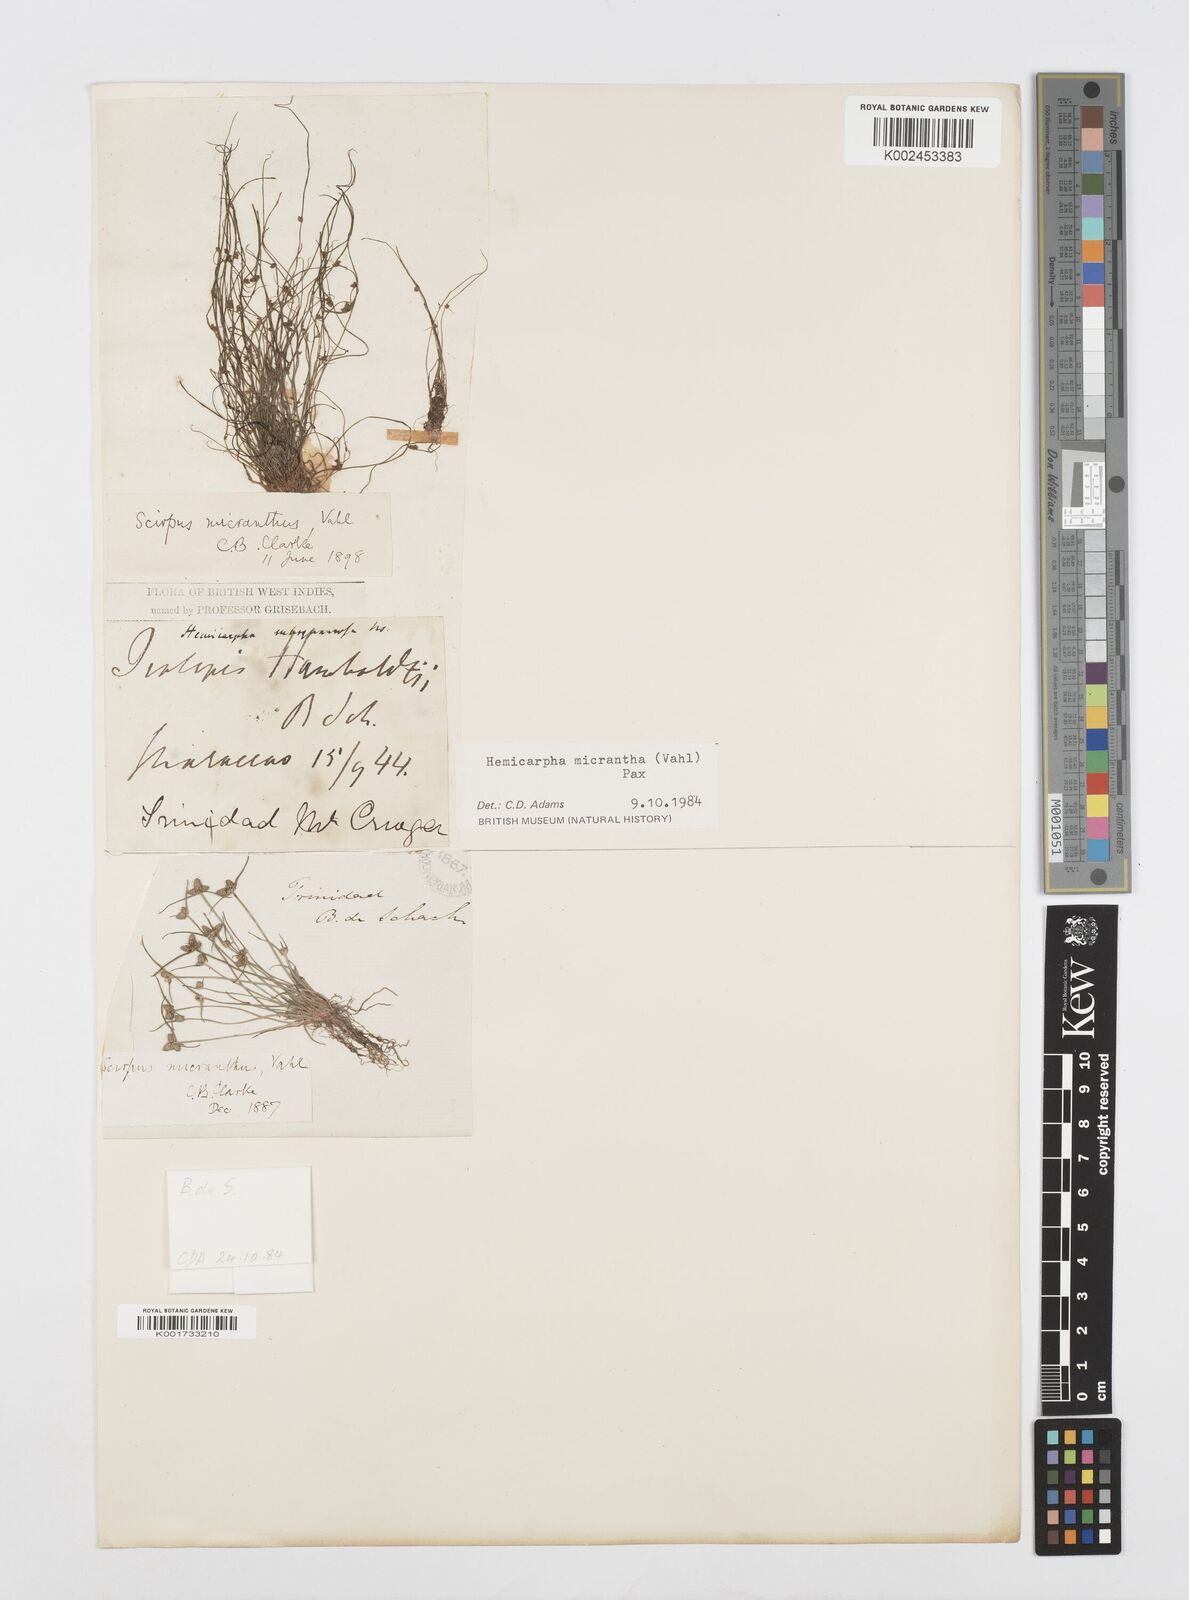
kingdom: Plantae
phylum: Tracheophyta
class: Liliopsida
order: Poales
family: Cyperaceae
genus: Cyperus
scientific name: Cyperus
